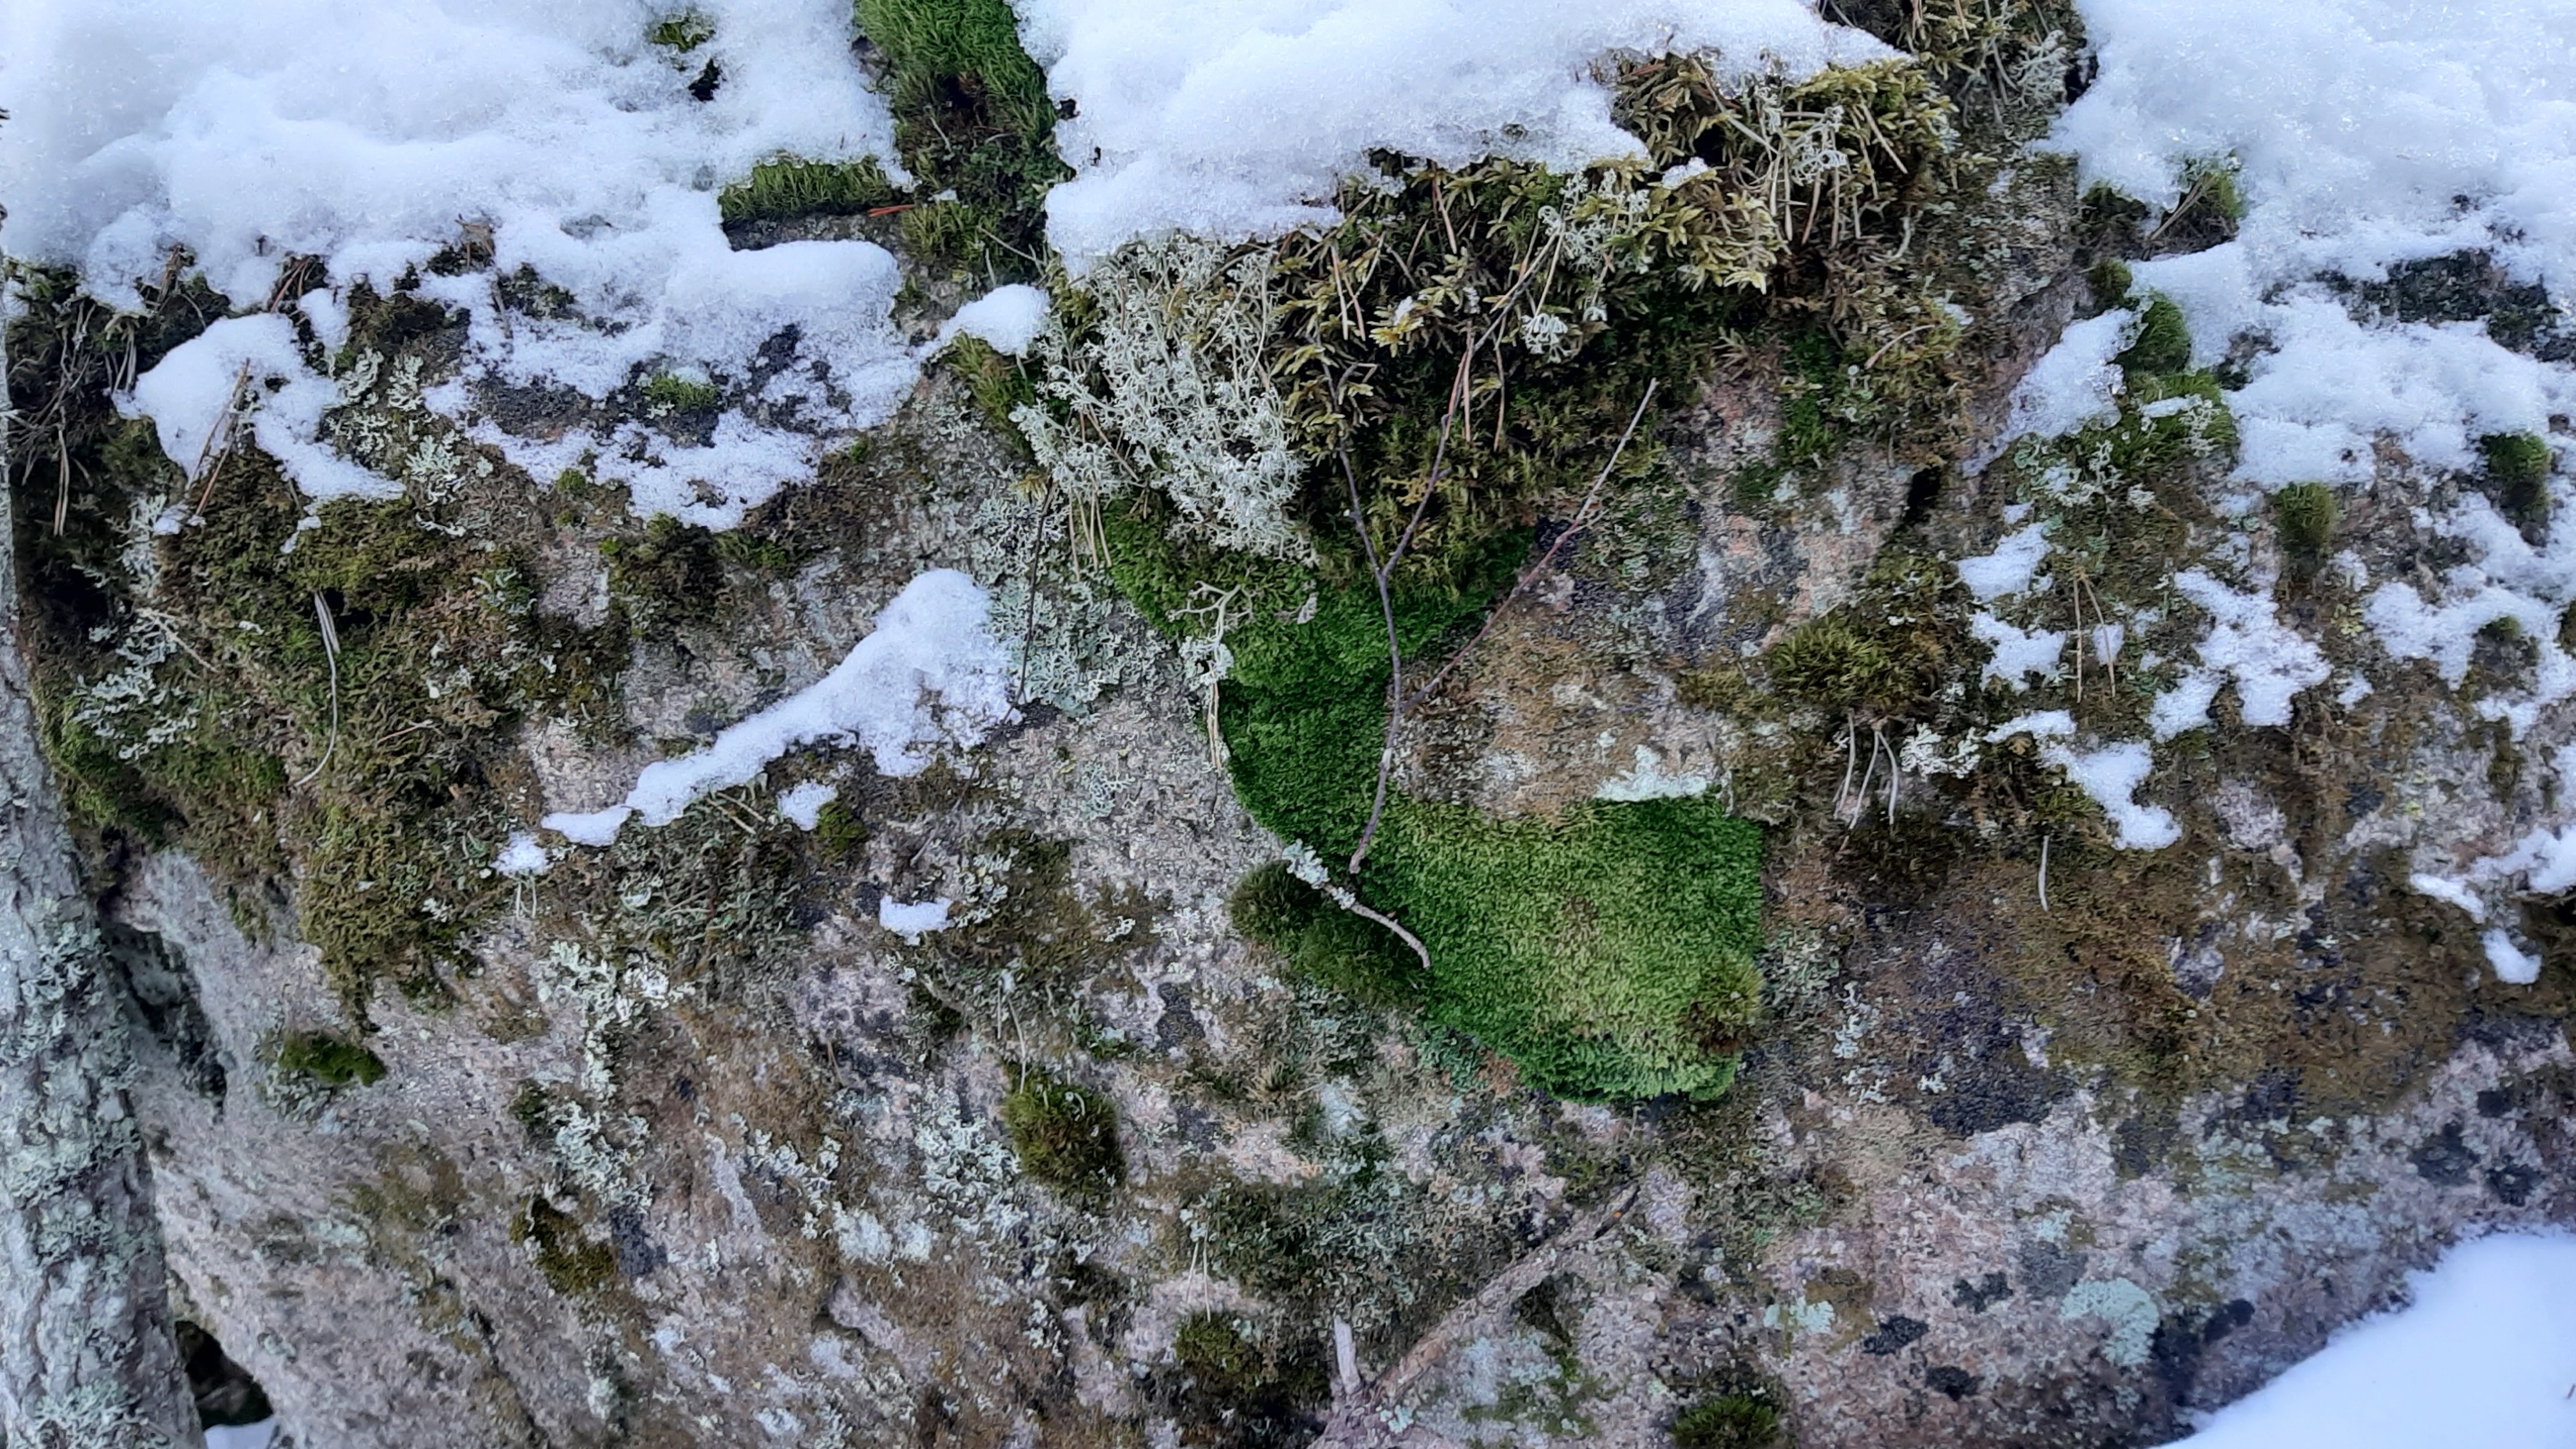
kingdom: Plantae
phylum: Bryophyta
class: Bryopsida
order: Hypnales
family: Plagiotheciaceae
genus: Plagiothecium
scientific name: Plagiothecium denticulatum
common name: Dented silk moss
